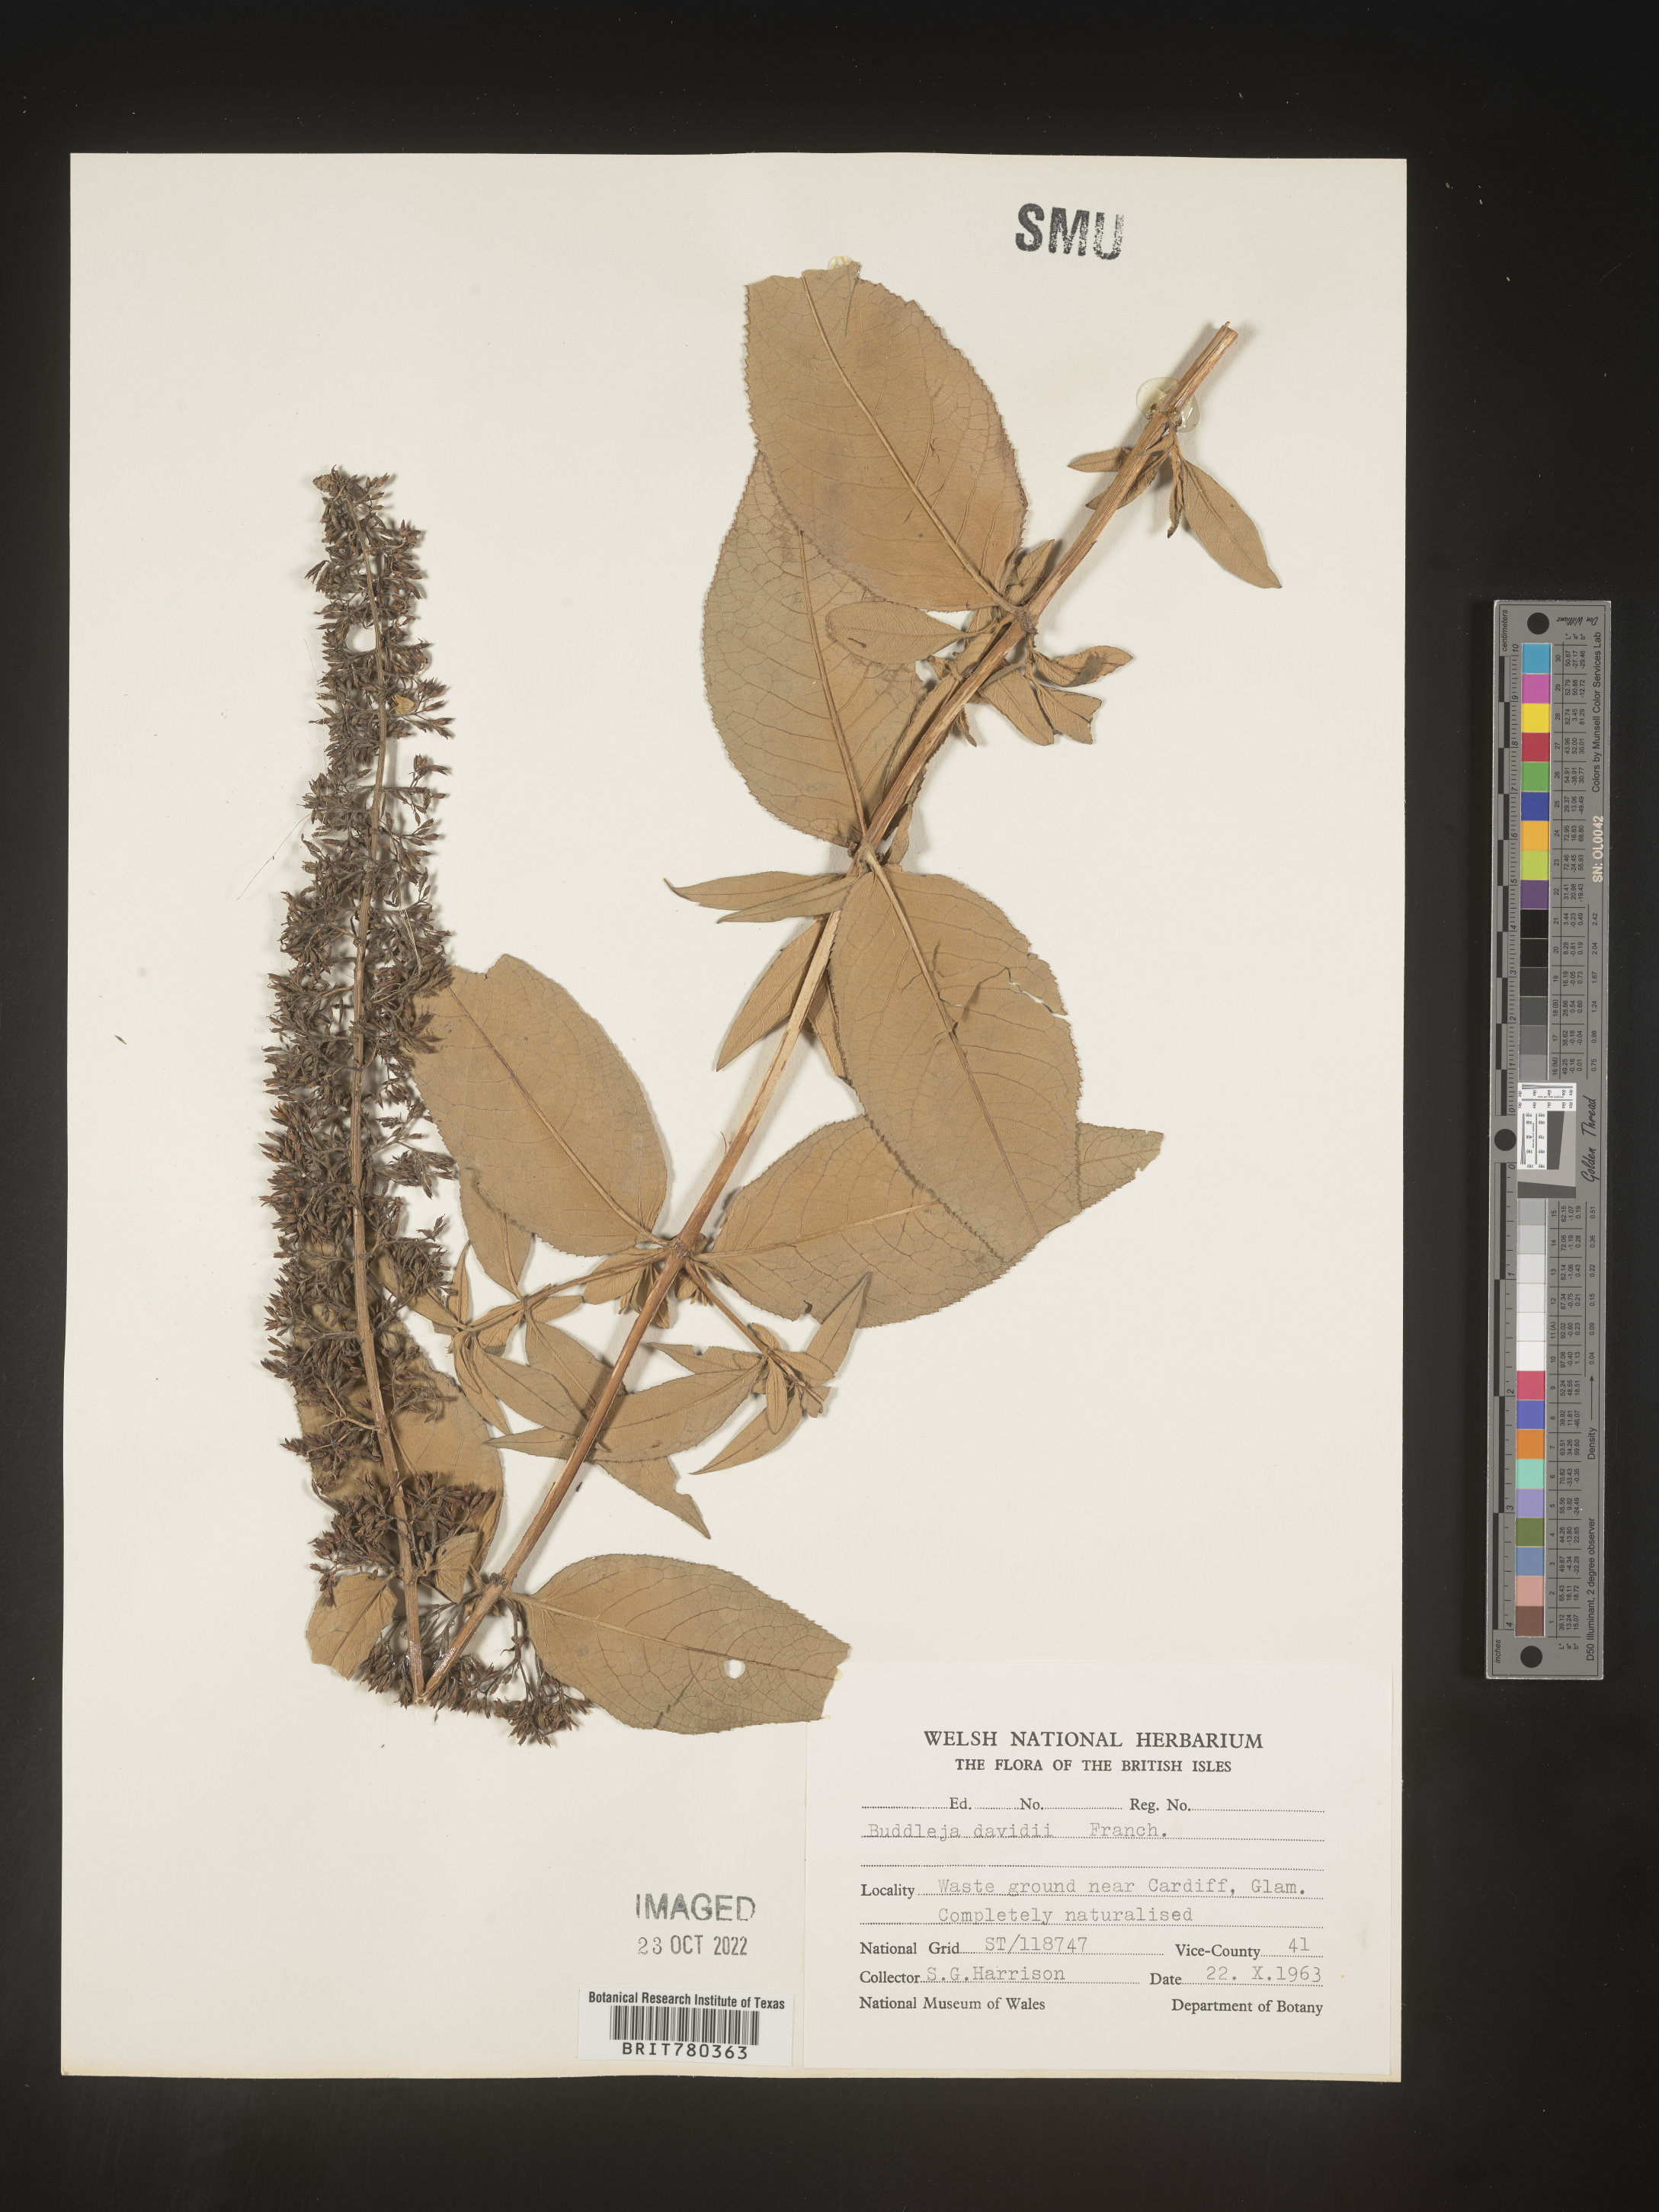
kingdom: Plantae
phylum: Tracheophyta
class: Magnoliopsida
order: Lamiales
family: Scrophulariaceae
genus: Buddleja
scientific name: Buddleja
